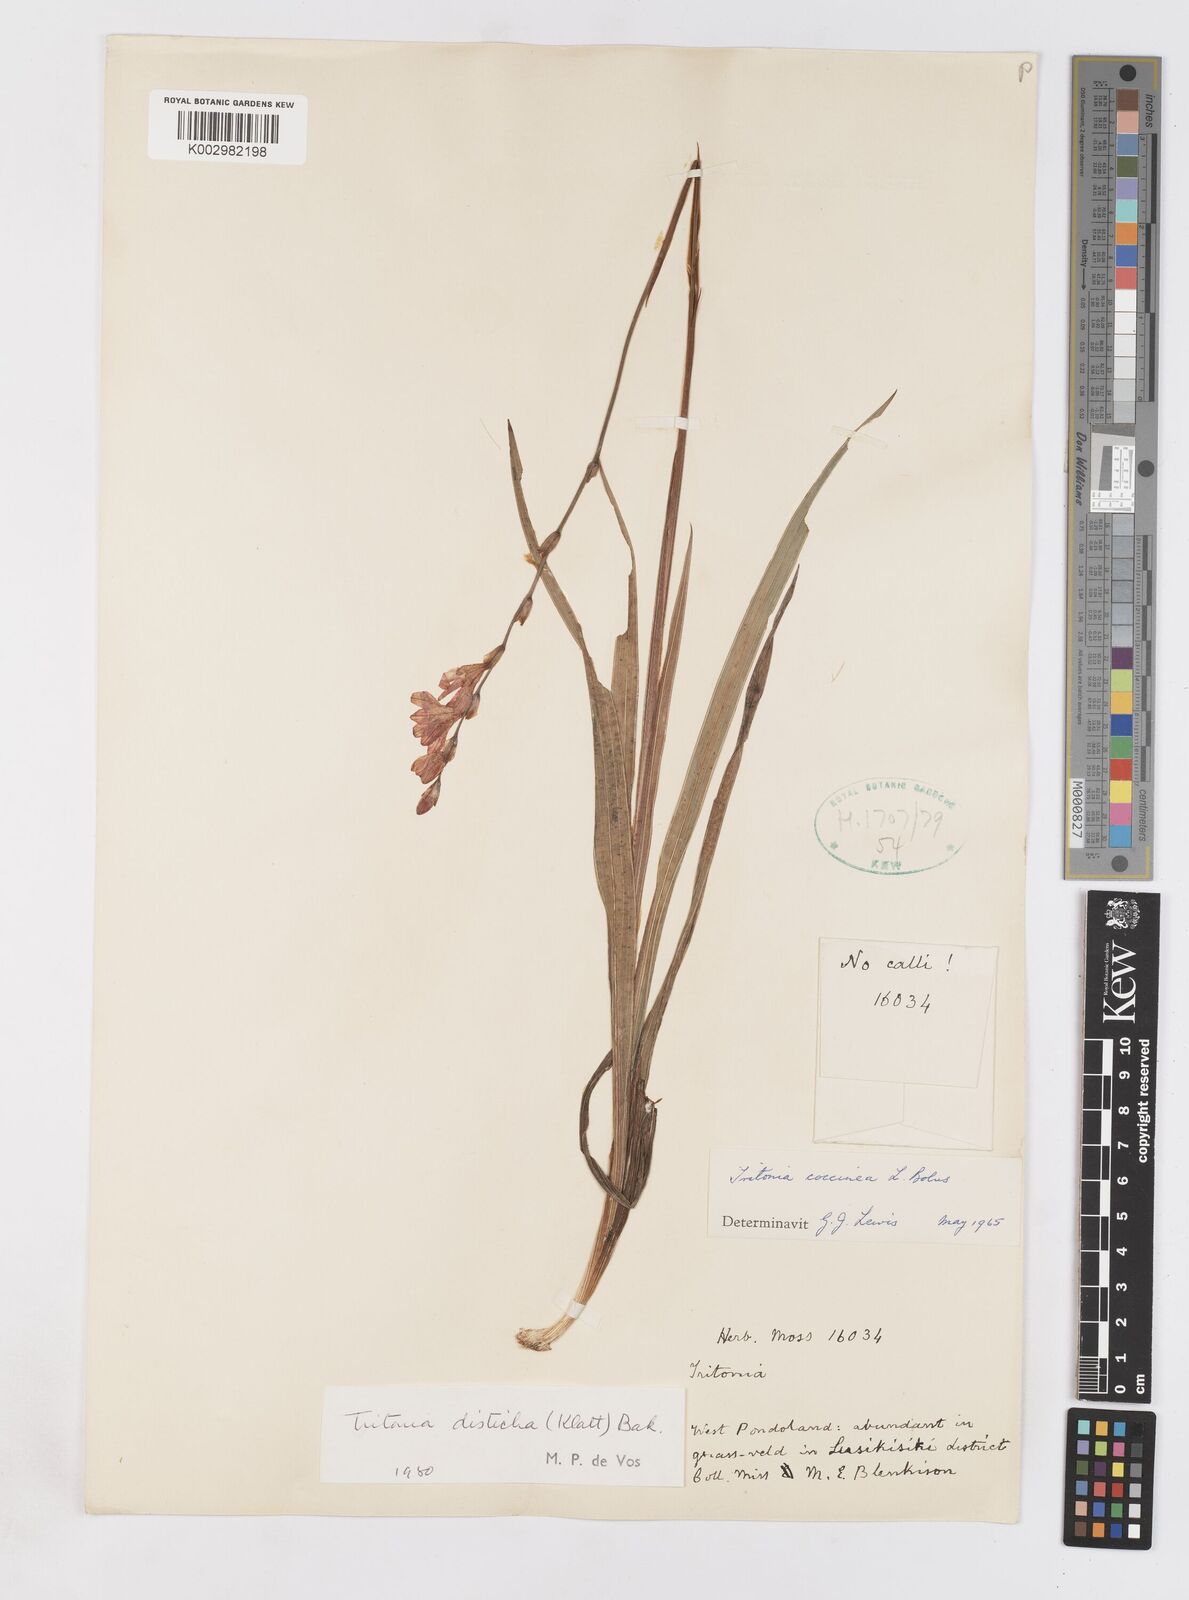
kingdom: Plantae
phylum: Tracheophyta
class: Liliopsida
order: Asparagales
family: Iridaceae
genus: Tritonia
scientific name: Tritonia disticha
